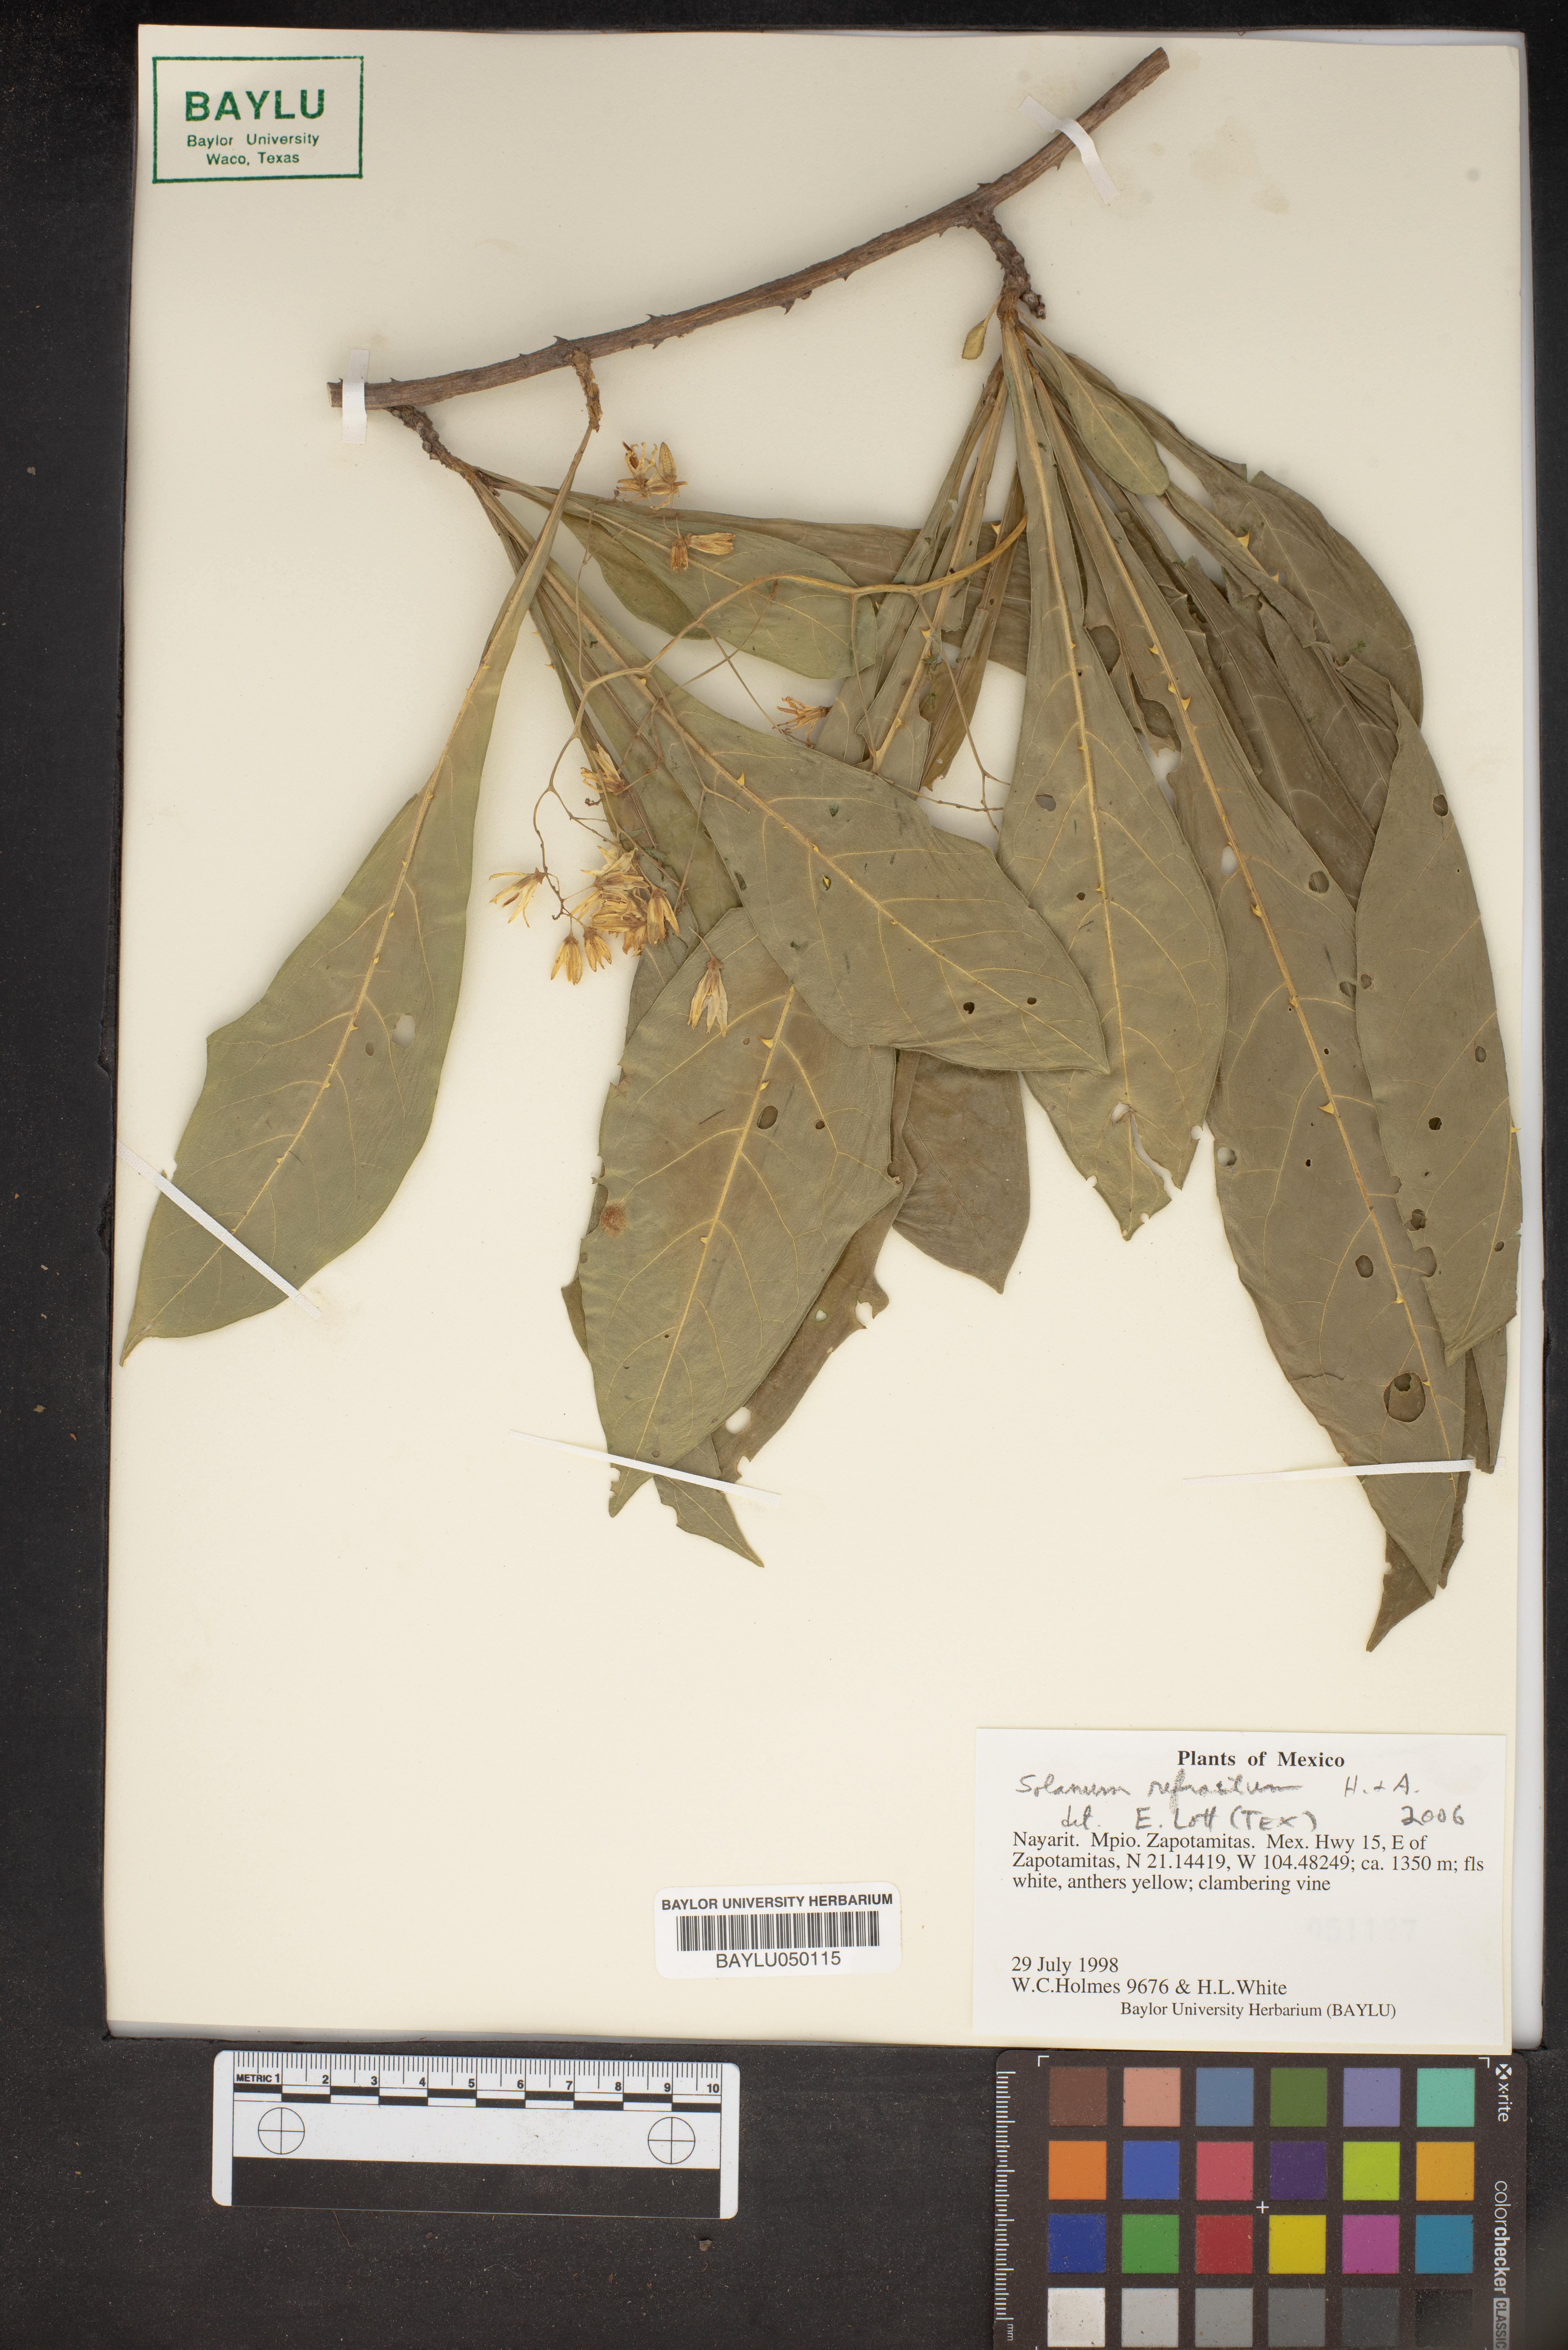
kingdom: Plantae
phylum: Tracheophyta
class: Magnoliopsida
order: Solanales
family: Solanaceae
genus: Solanum
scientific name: Solanum refractum
